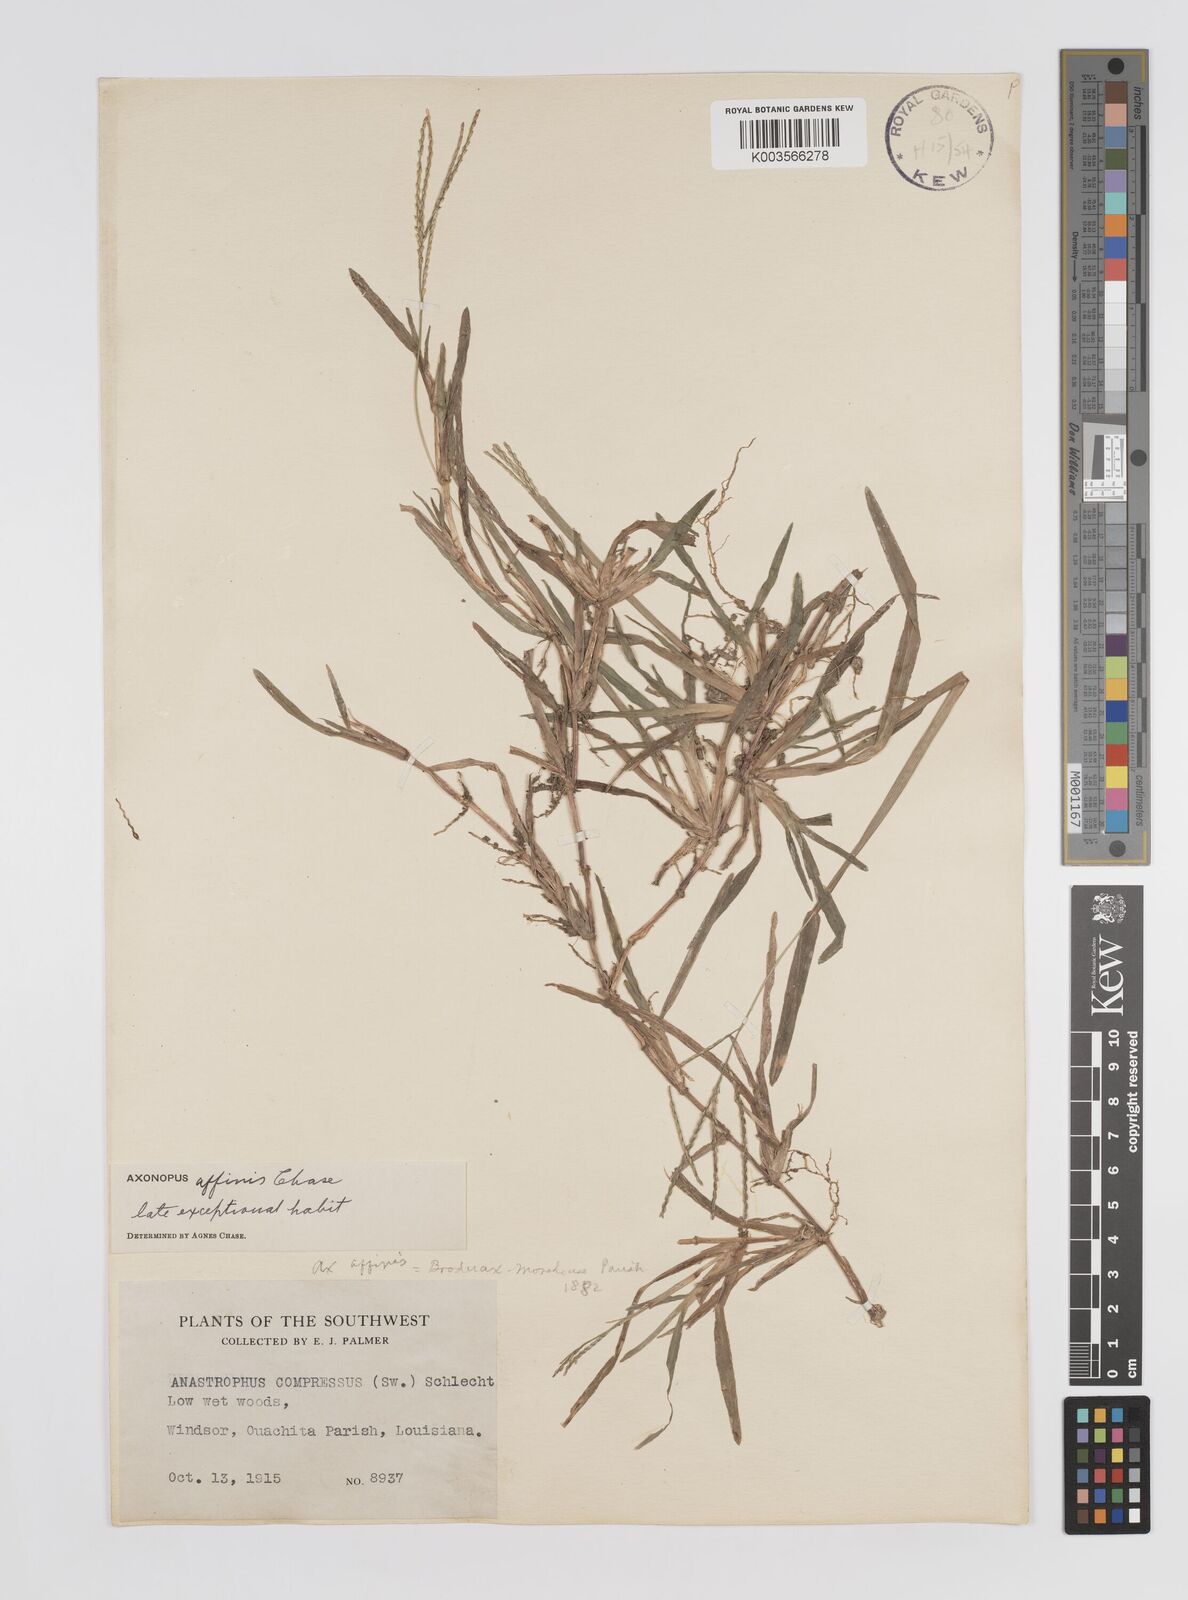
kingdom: Plantae
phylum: Tracheophyta
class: Liliopsida
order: Poales
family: Poaceae
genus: Axonopus
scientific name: Axonopus fissifolius
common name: Common carpetgrass
